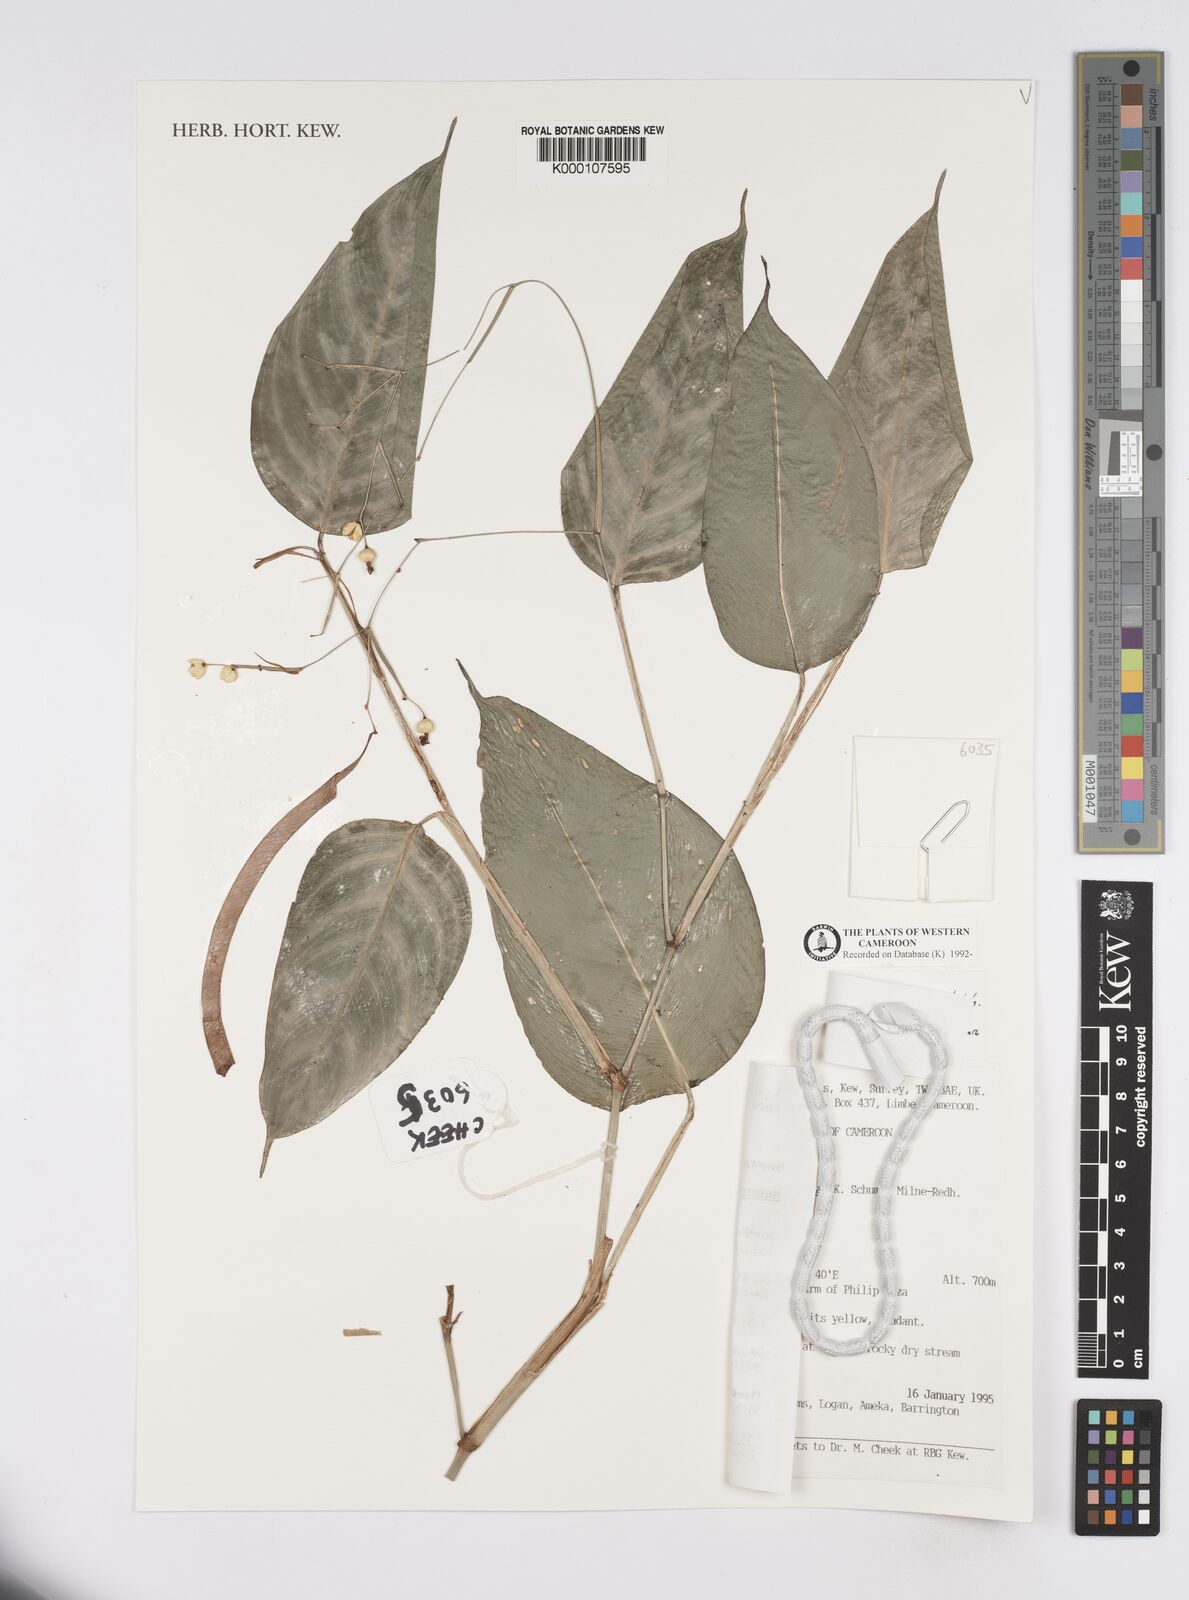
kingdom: Plantae
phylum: Tracheophyta
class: Liliopsida
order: Zingiberales
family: Marantaceae
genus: Marantochloa
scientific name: Marantochloa filipes
